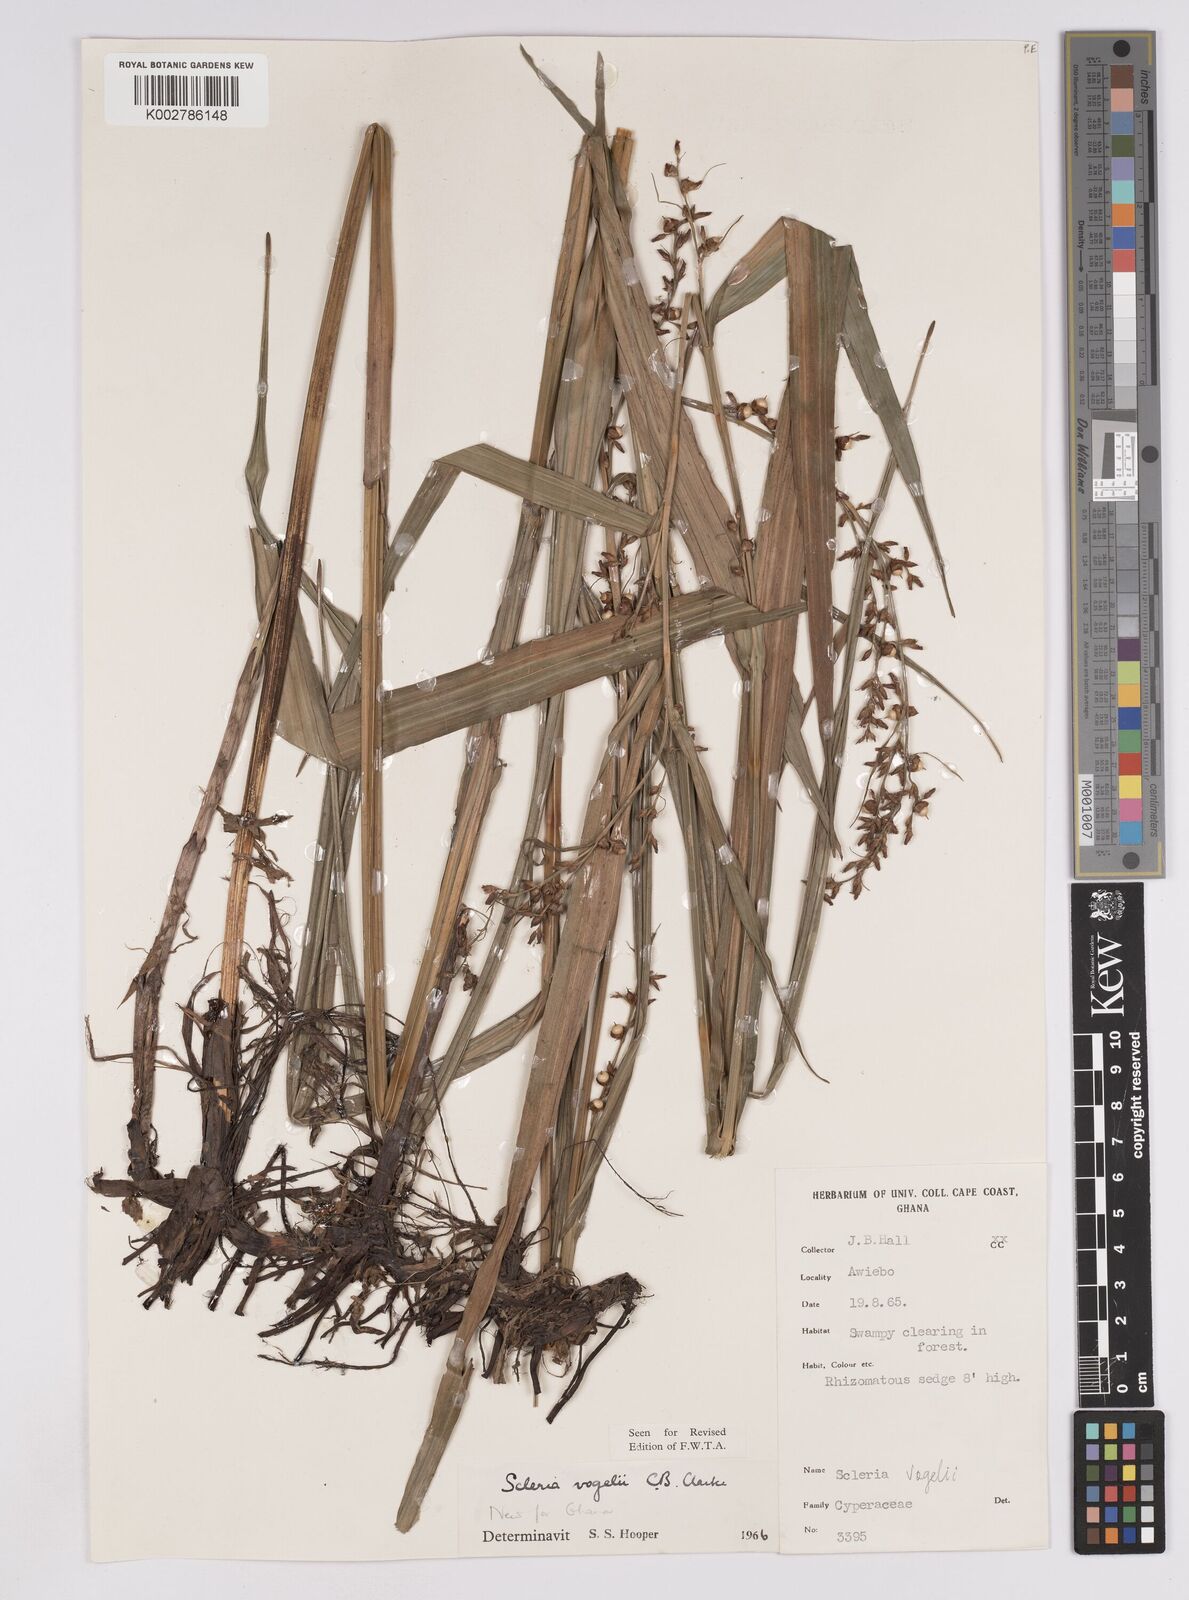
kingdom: Plantae
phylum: Tracheophyta
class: Liliopsida
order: Poales
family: Cyperaceae
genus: Scleria
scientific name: Scleria vogelii
